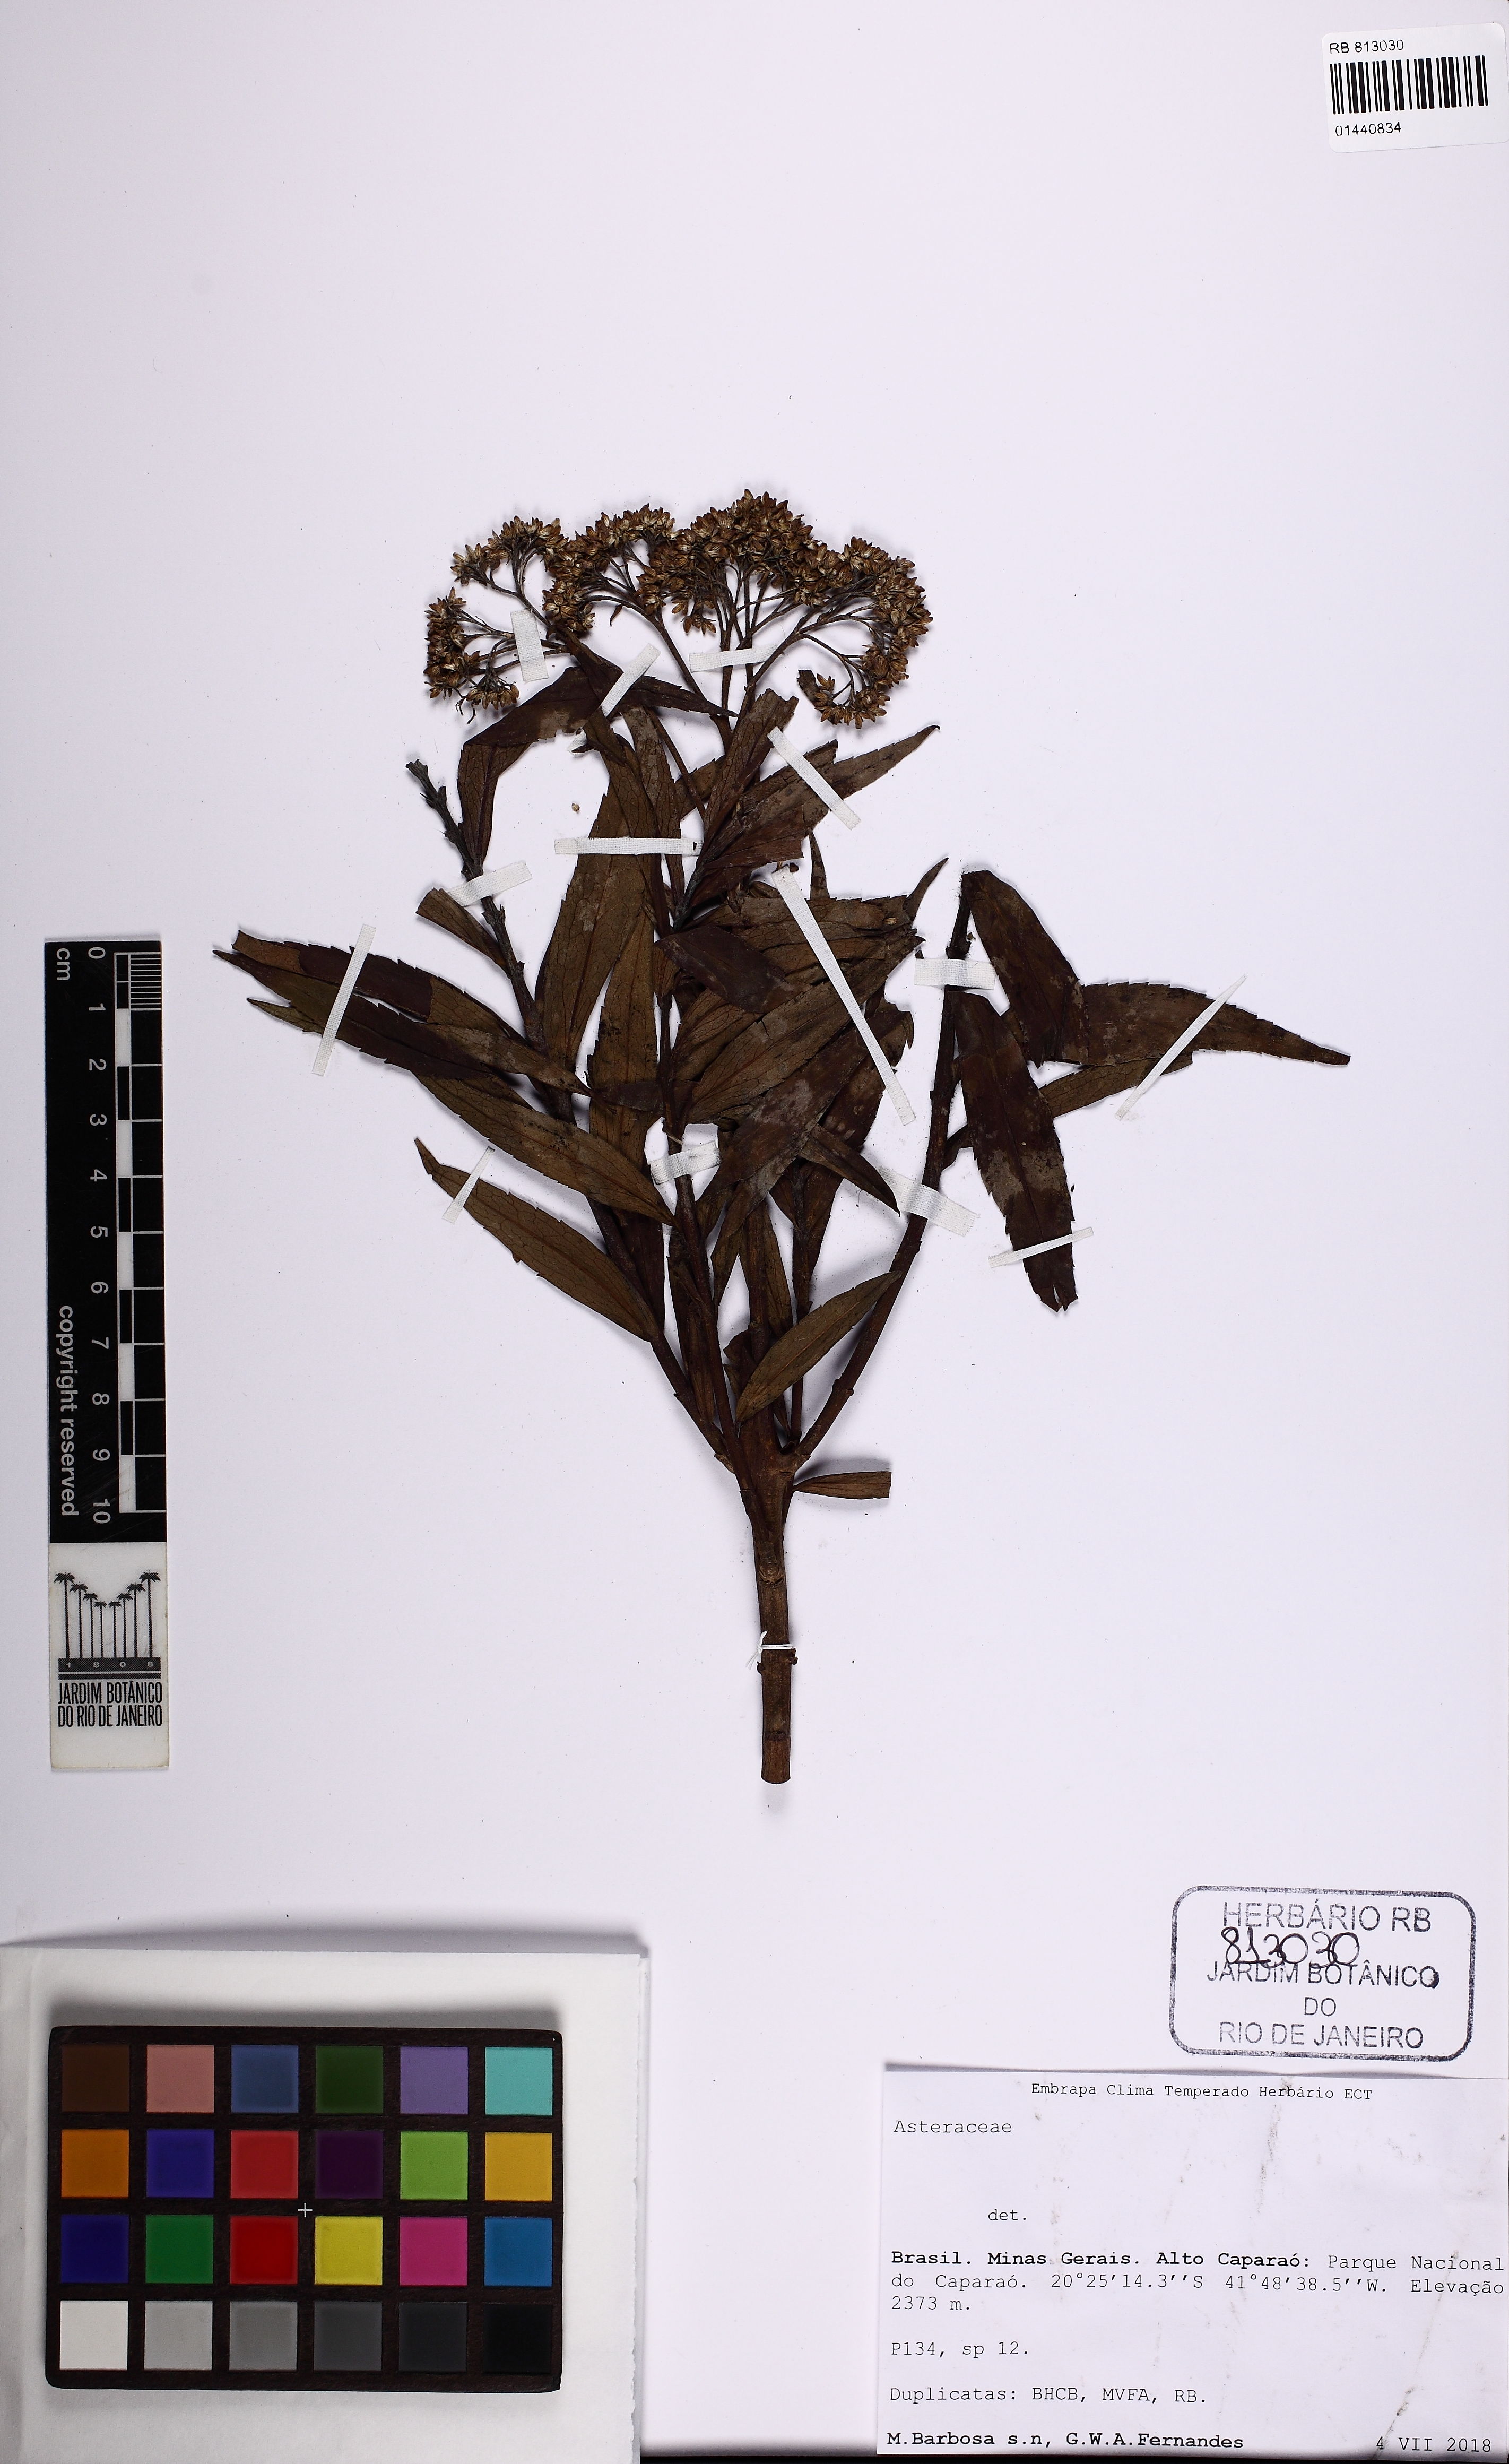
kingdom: Plantae
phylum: Tracheophyta
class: Magnoliopsida
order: Asterales
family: Asteraceae
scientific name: Asteraceae
